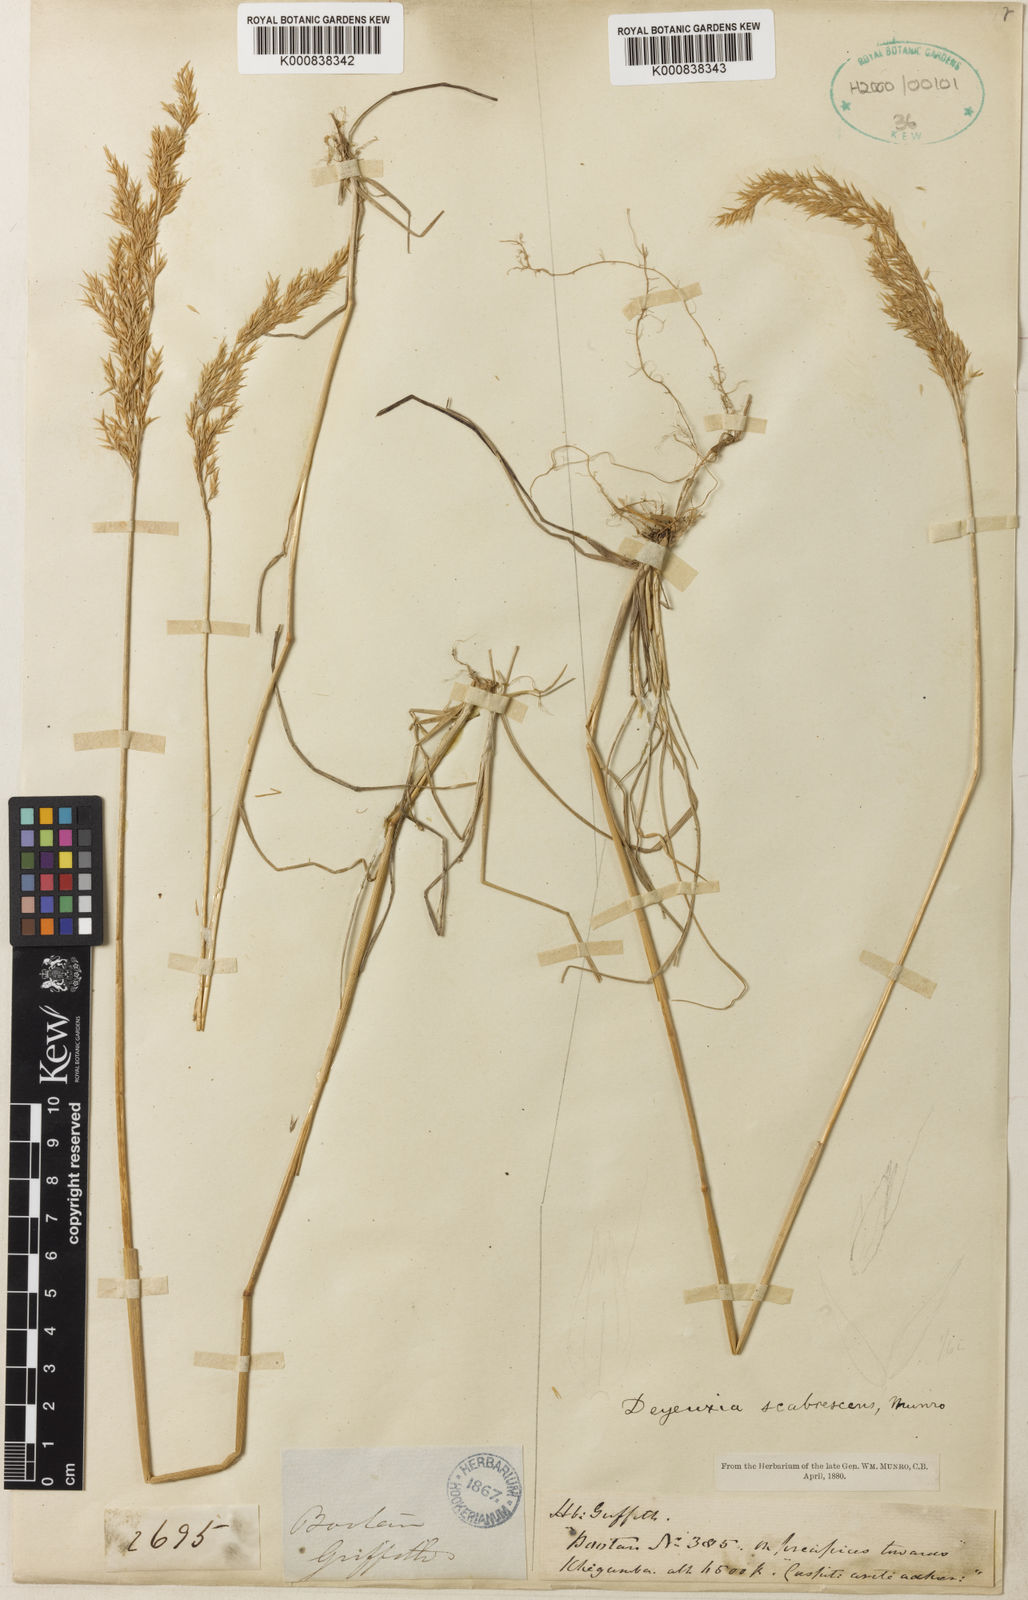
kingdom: Plantae
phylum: Tracheophyta
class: Liliopsida
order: Poales
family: Poaceae
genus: Calamagrostis
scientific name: Calamagrostis scabrescens
